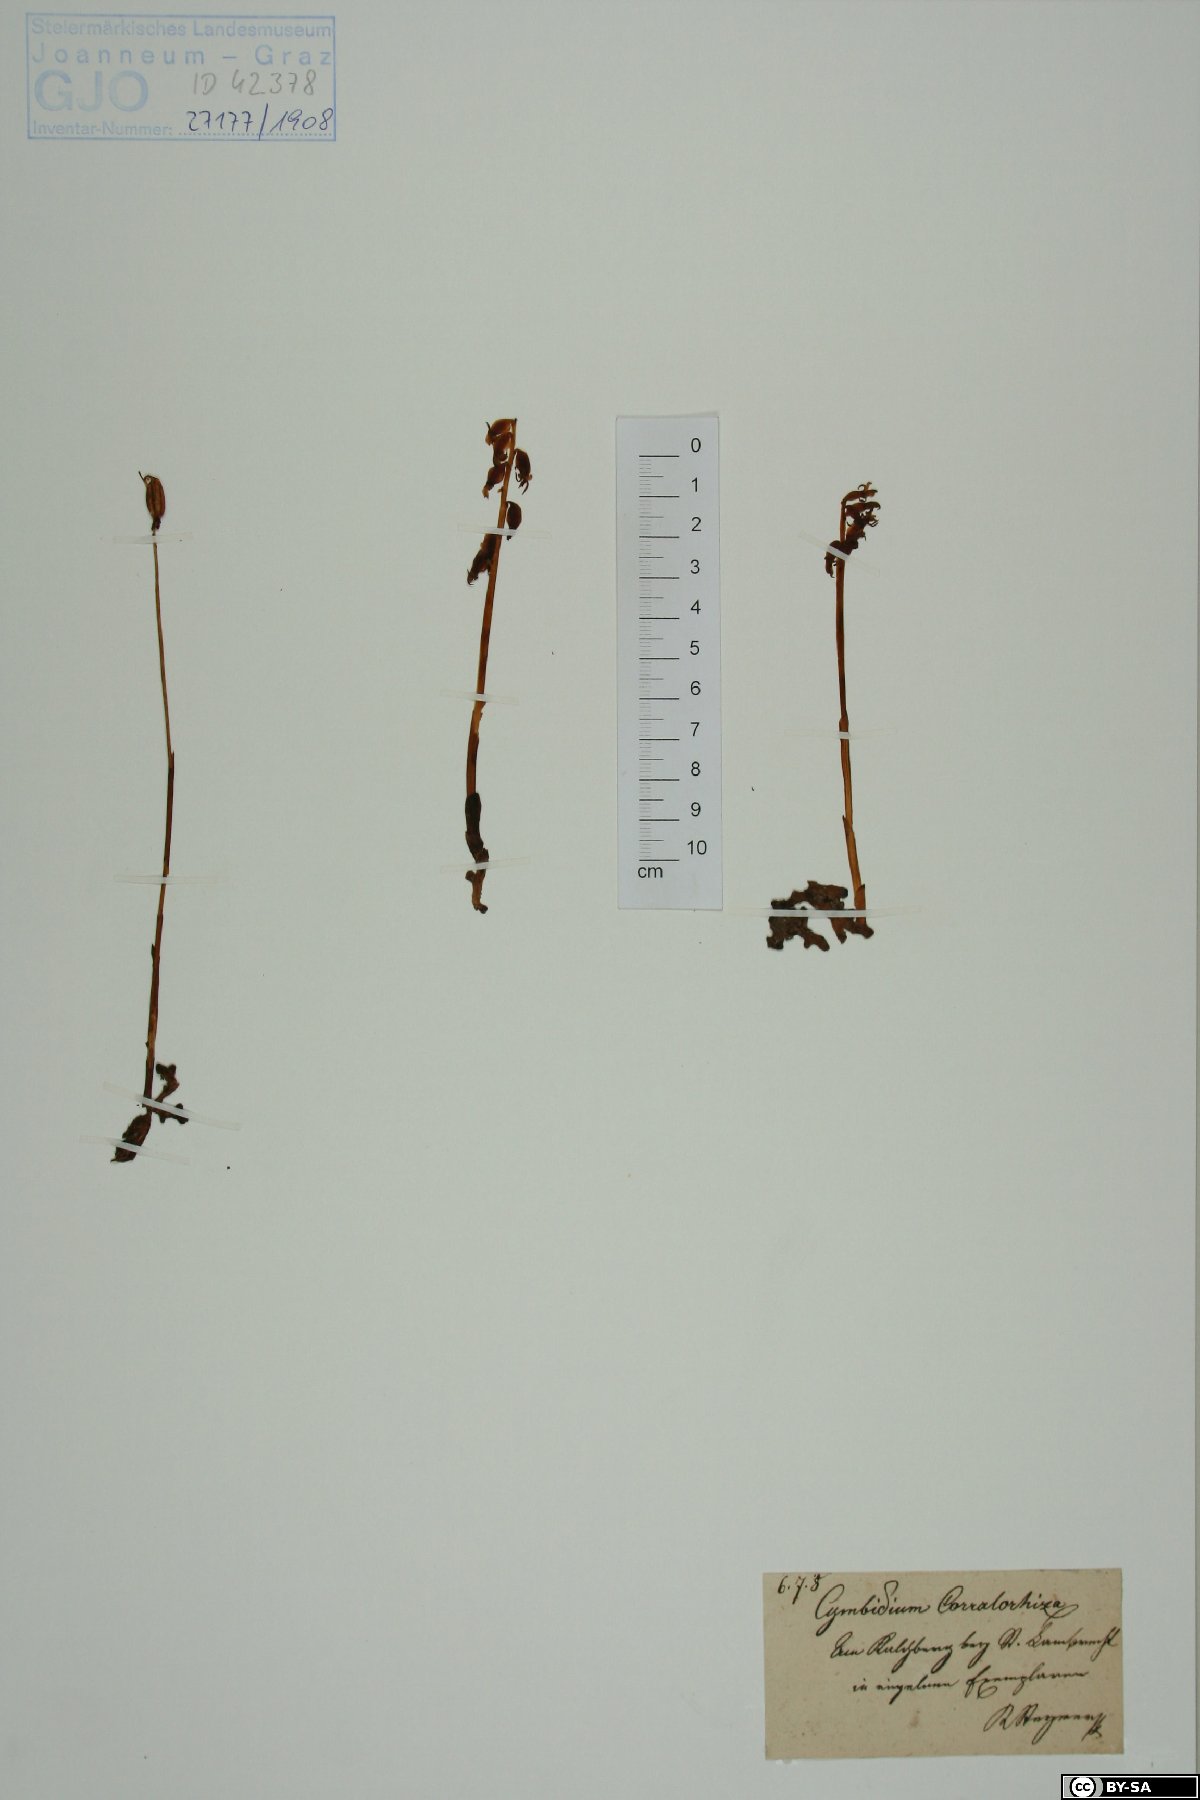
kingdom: Plantae
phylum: Tracheophyta
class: Liliopsida
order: Asparagales
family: Orchidaceae
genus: Corallorhiza
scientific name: Corallorhiza trifida
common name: Yellow coralroot
